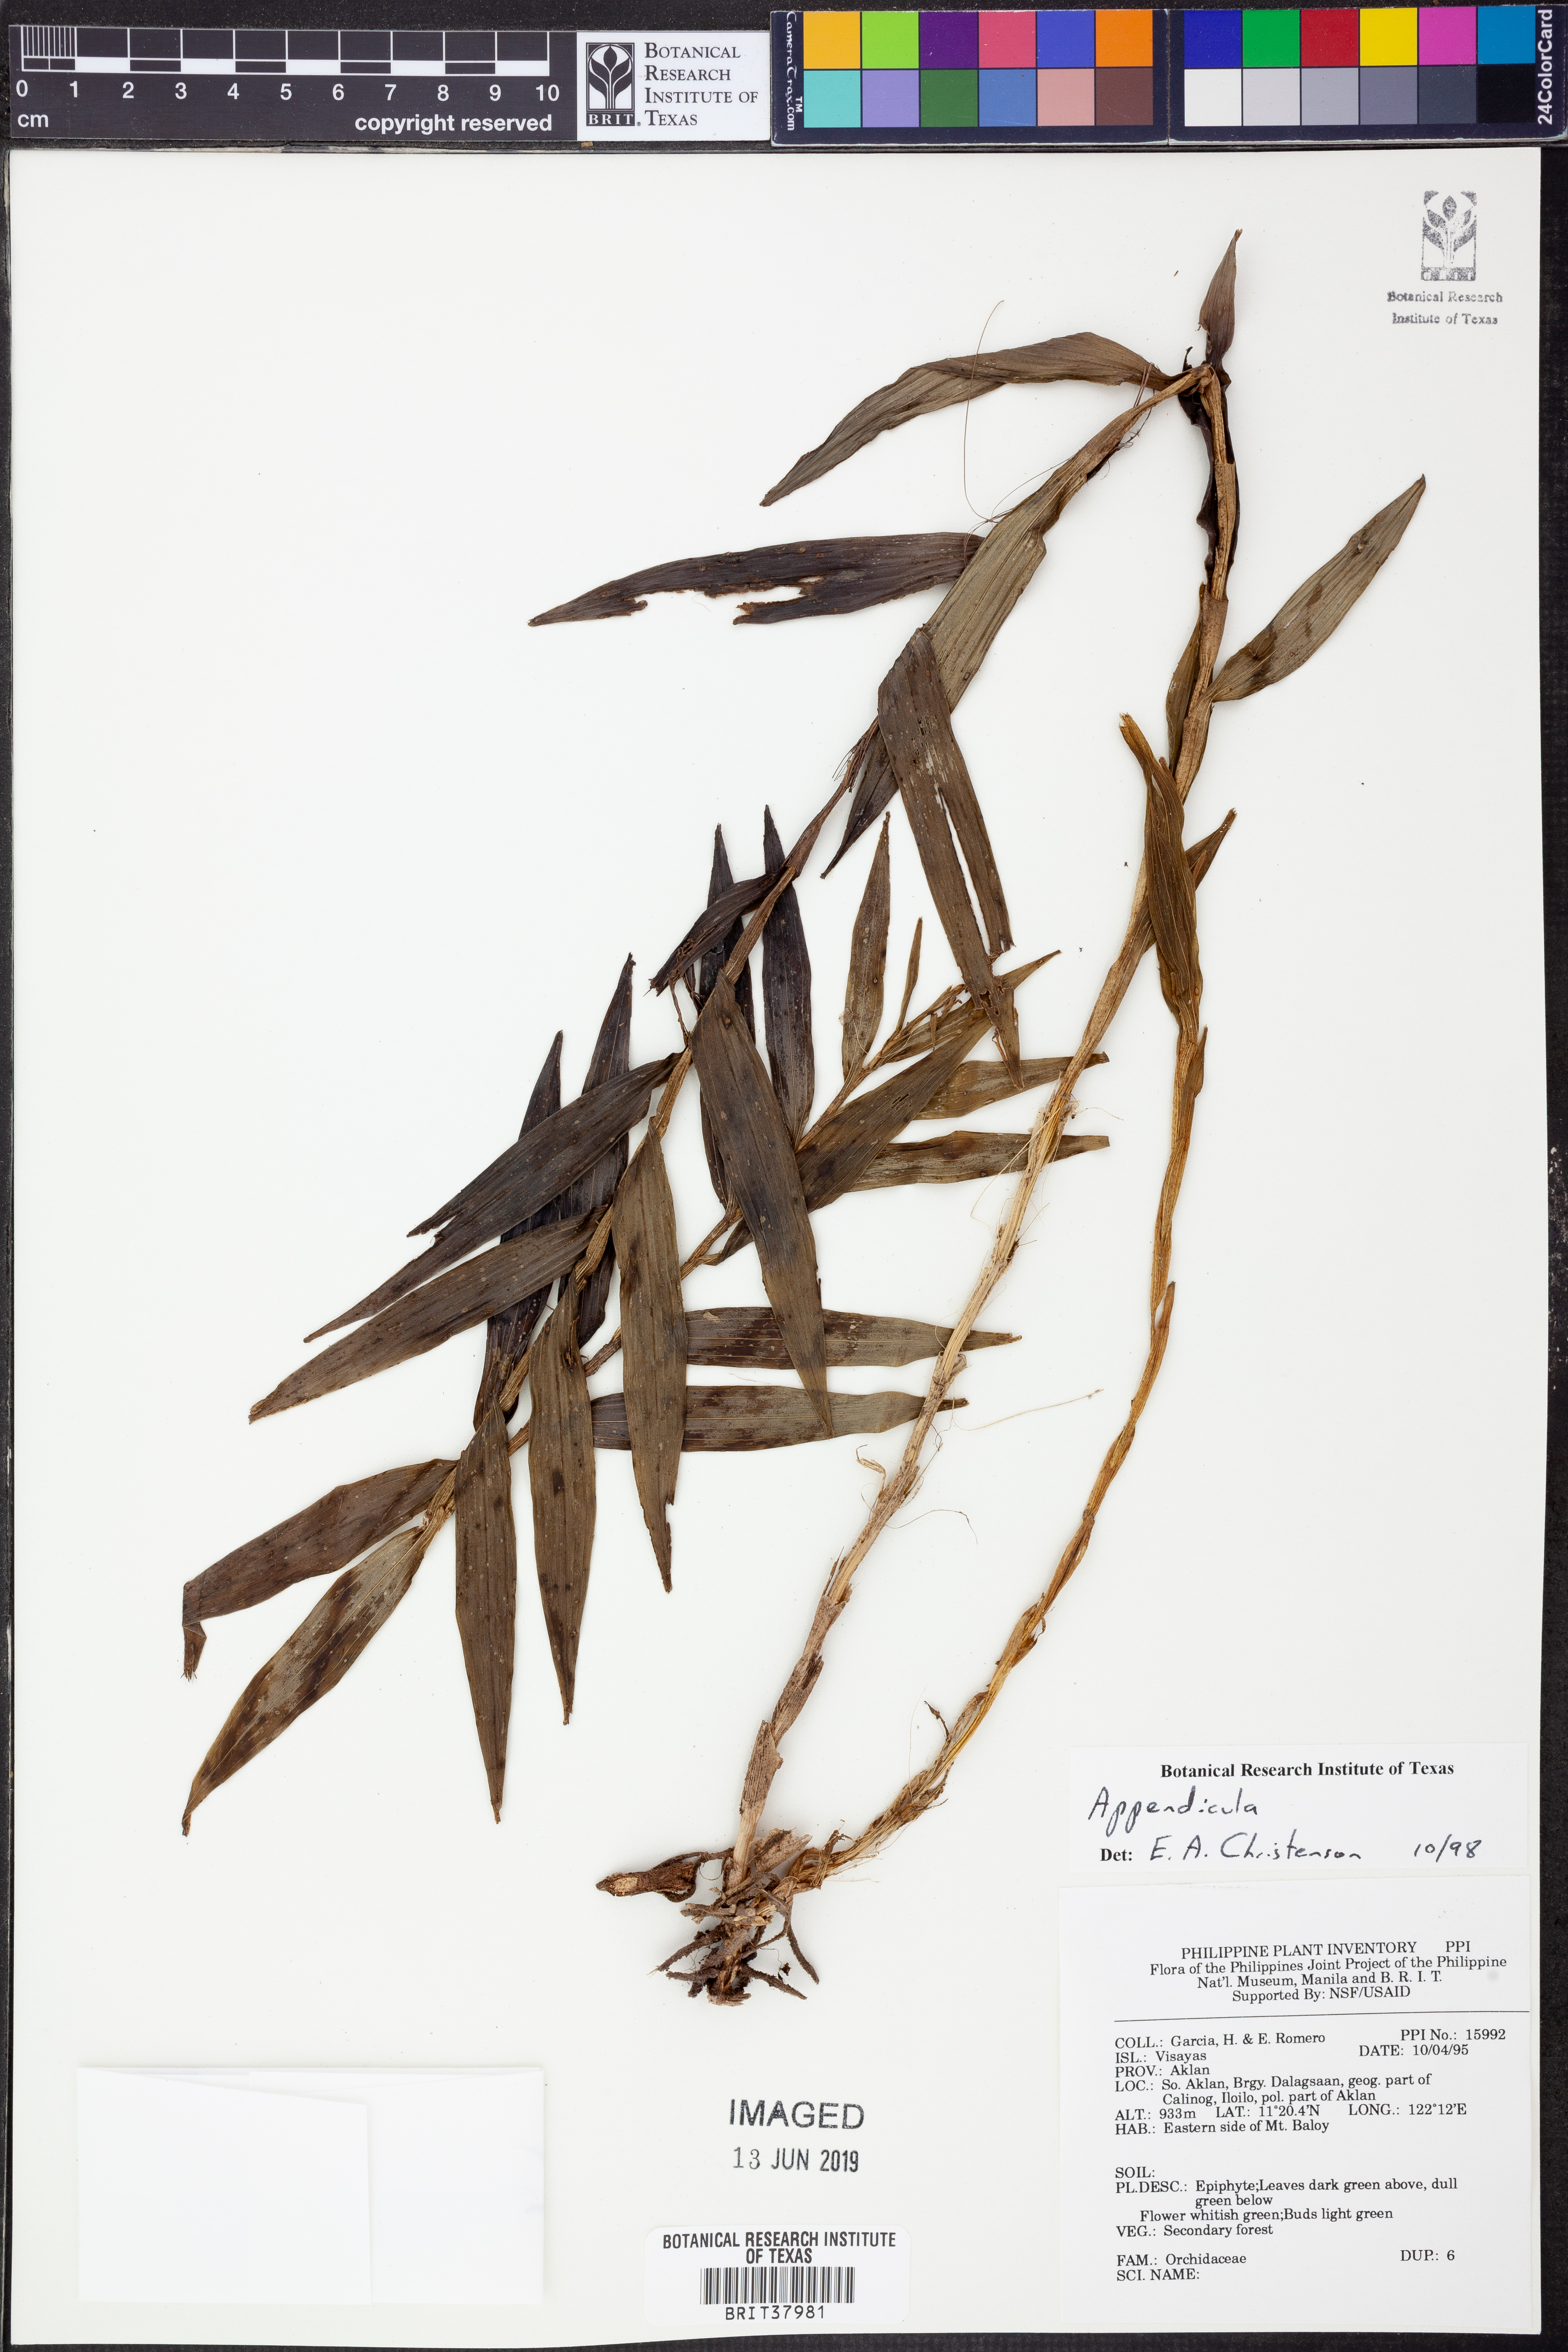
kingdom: Plantae
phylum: Tracheophyta
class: Liliopsida
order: Asparagales
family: Orchidaceae
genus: Appendicula
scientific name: Appendicula
